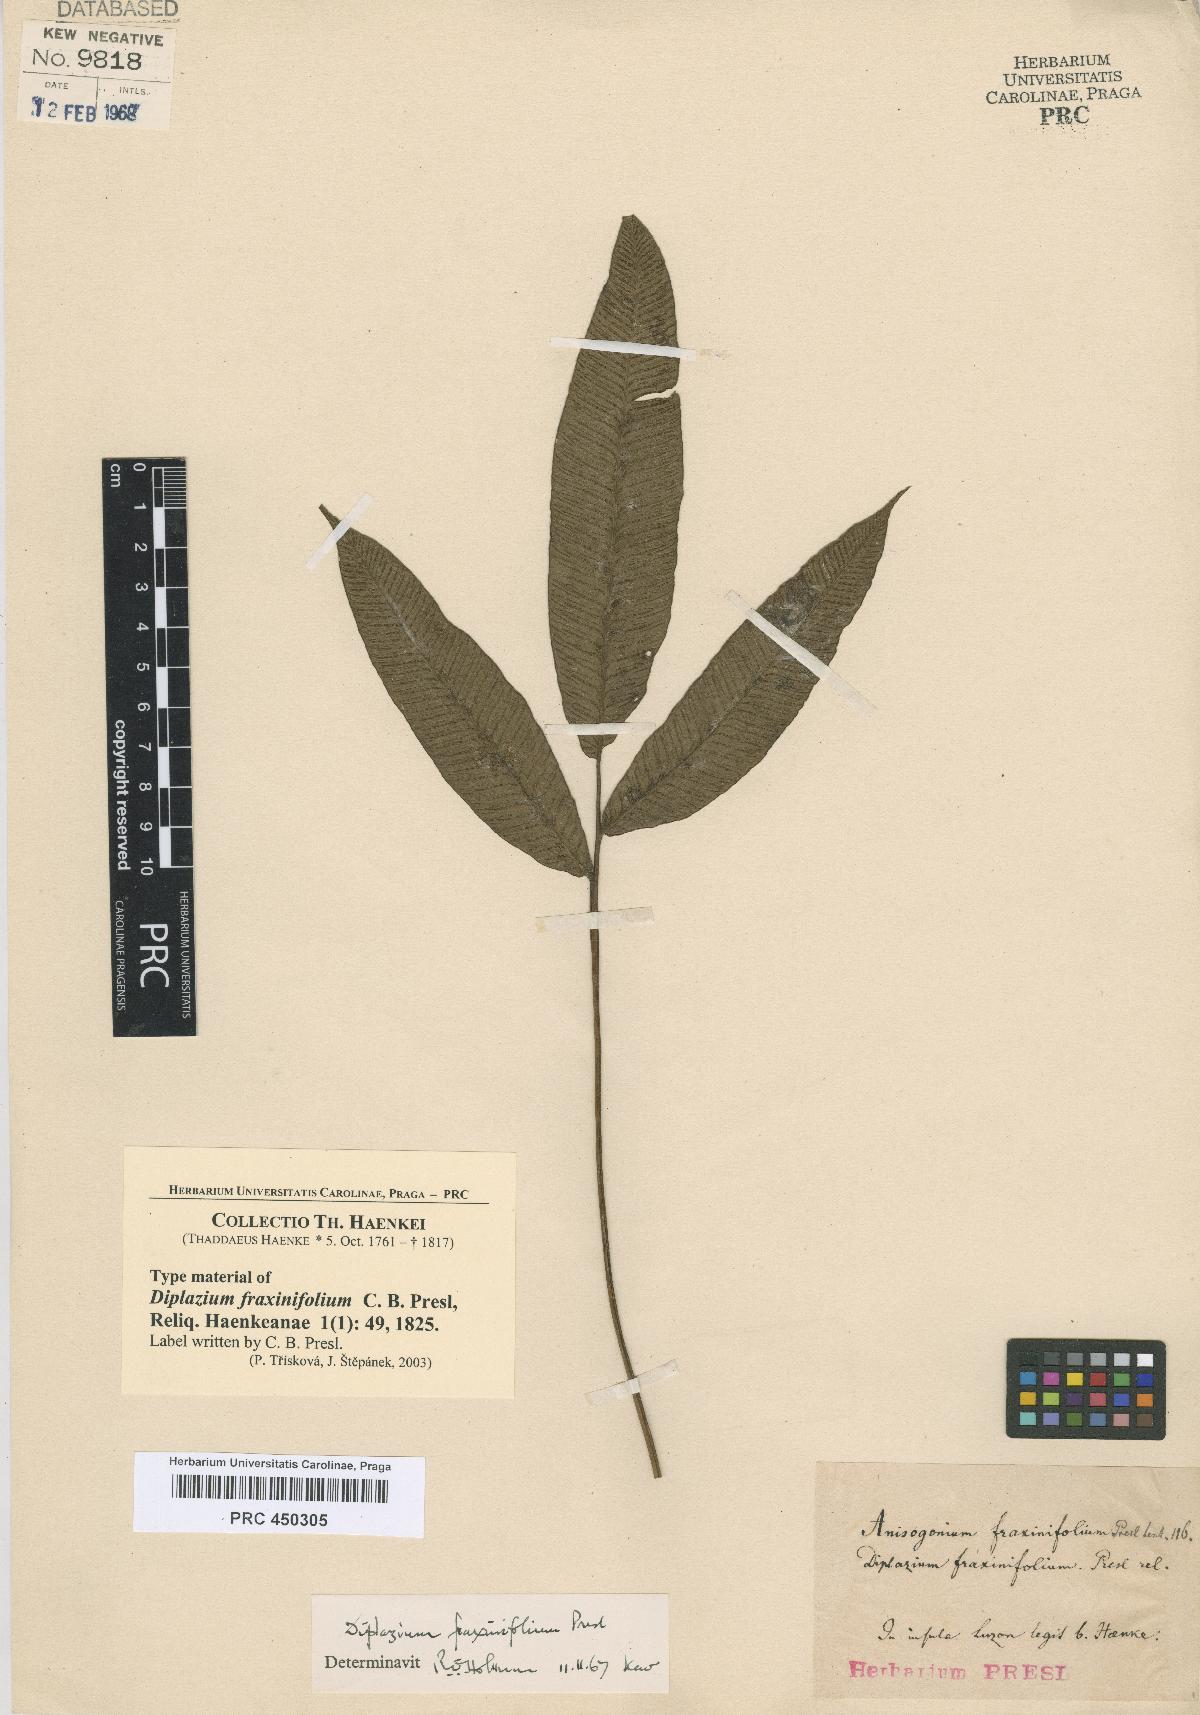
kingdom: Plantae
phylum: Tracheophyta
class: Polypodiopsida
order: Polypodiales
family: Athyriaceae
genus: Diplazium
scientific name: Diplazium fraxinifolium
